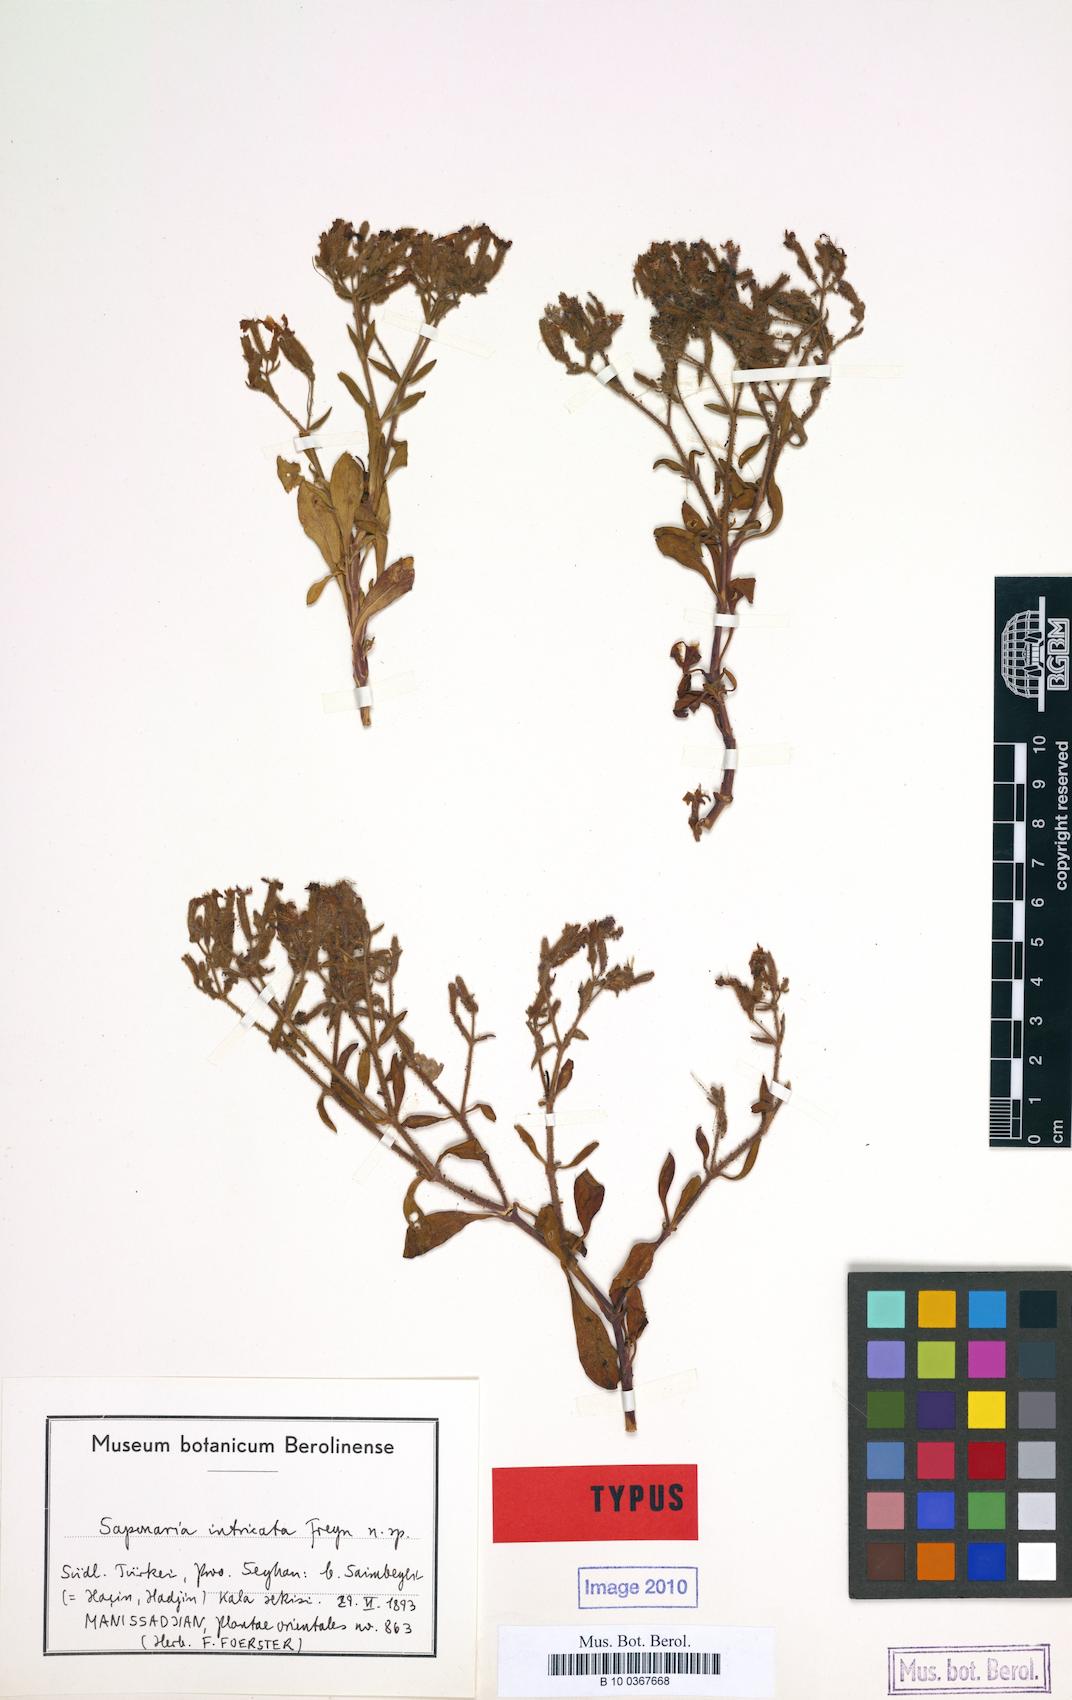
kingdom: Plantae
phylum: Tracheophyta
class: Magnoliopsida
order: Caryophyllales
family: Caryophyllaceae
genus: Saponaria
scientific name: Saponaria kotschyi
